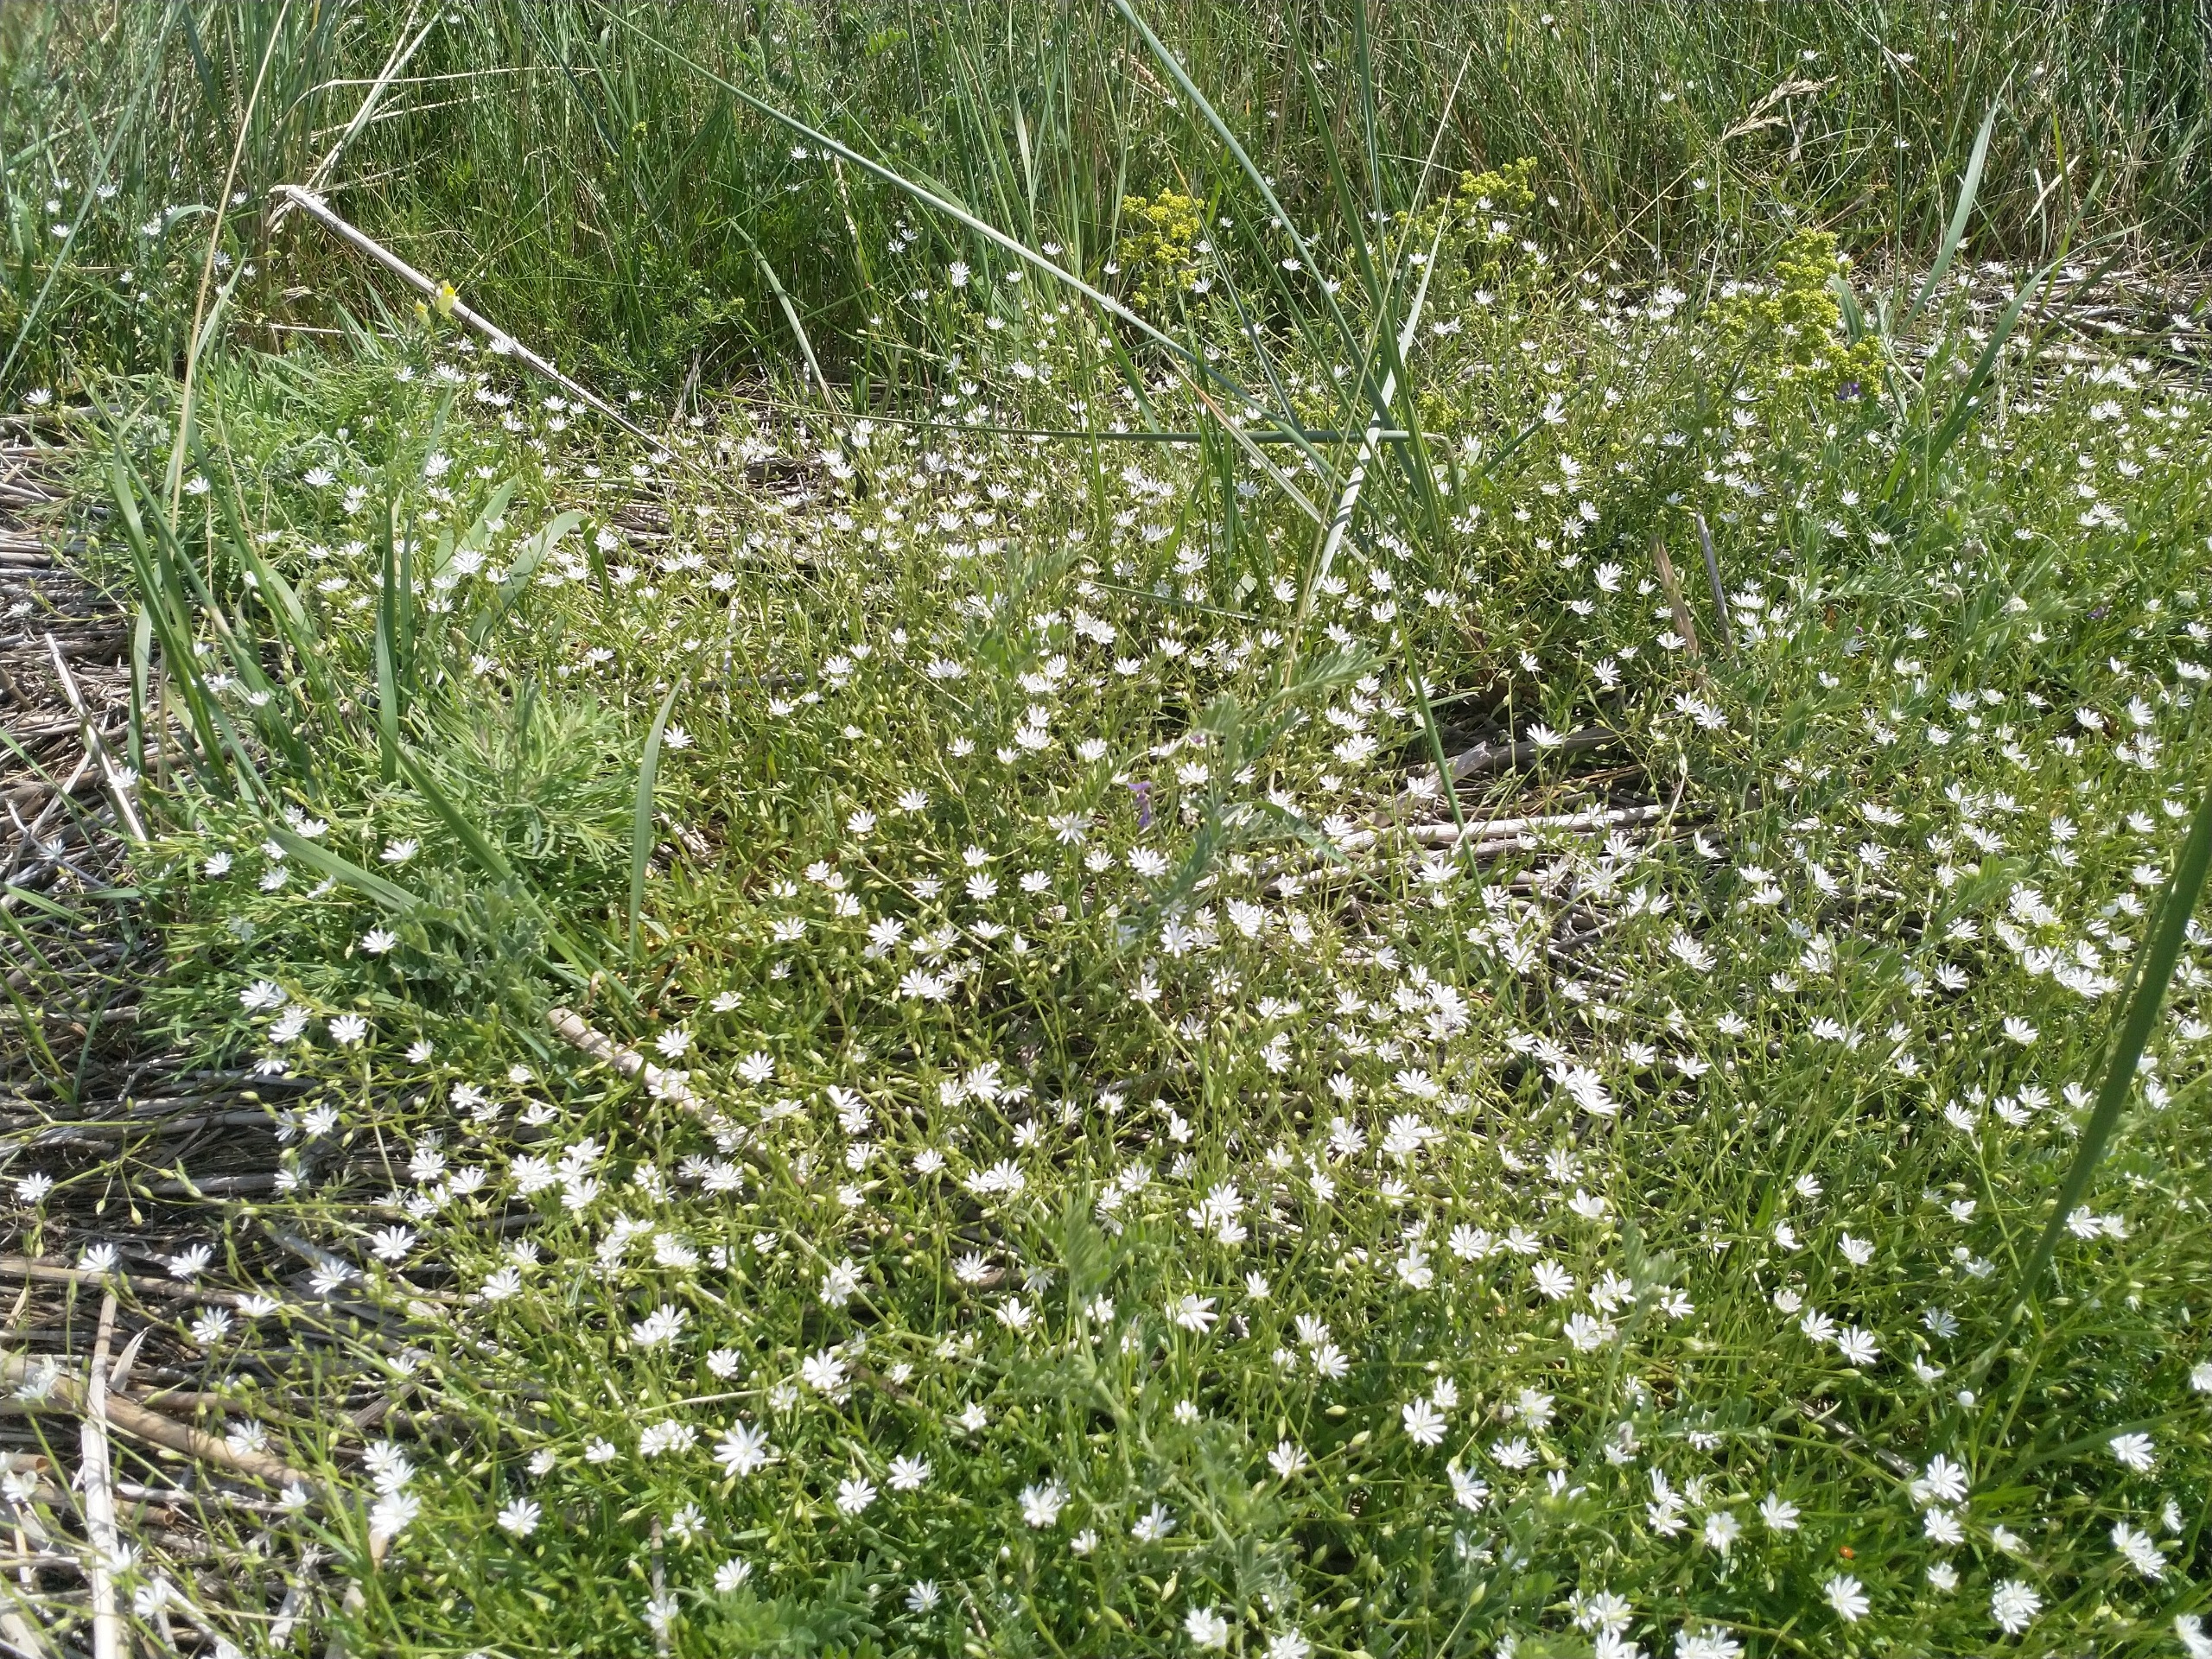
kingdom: Plantae
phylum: Tracheophyta
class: Magnoliopsida
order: Caryophyllales
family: Caryophyllaceae
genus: Stellaria
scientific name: Stellaria graminea
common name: Græsbladet fladstjerne
